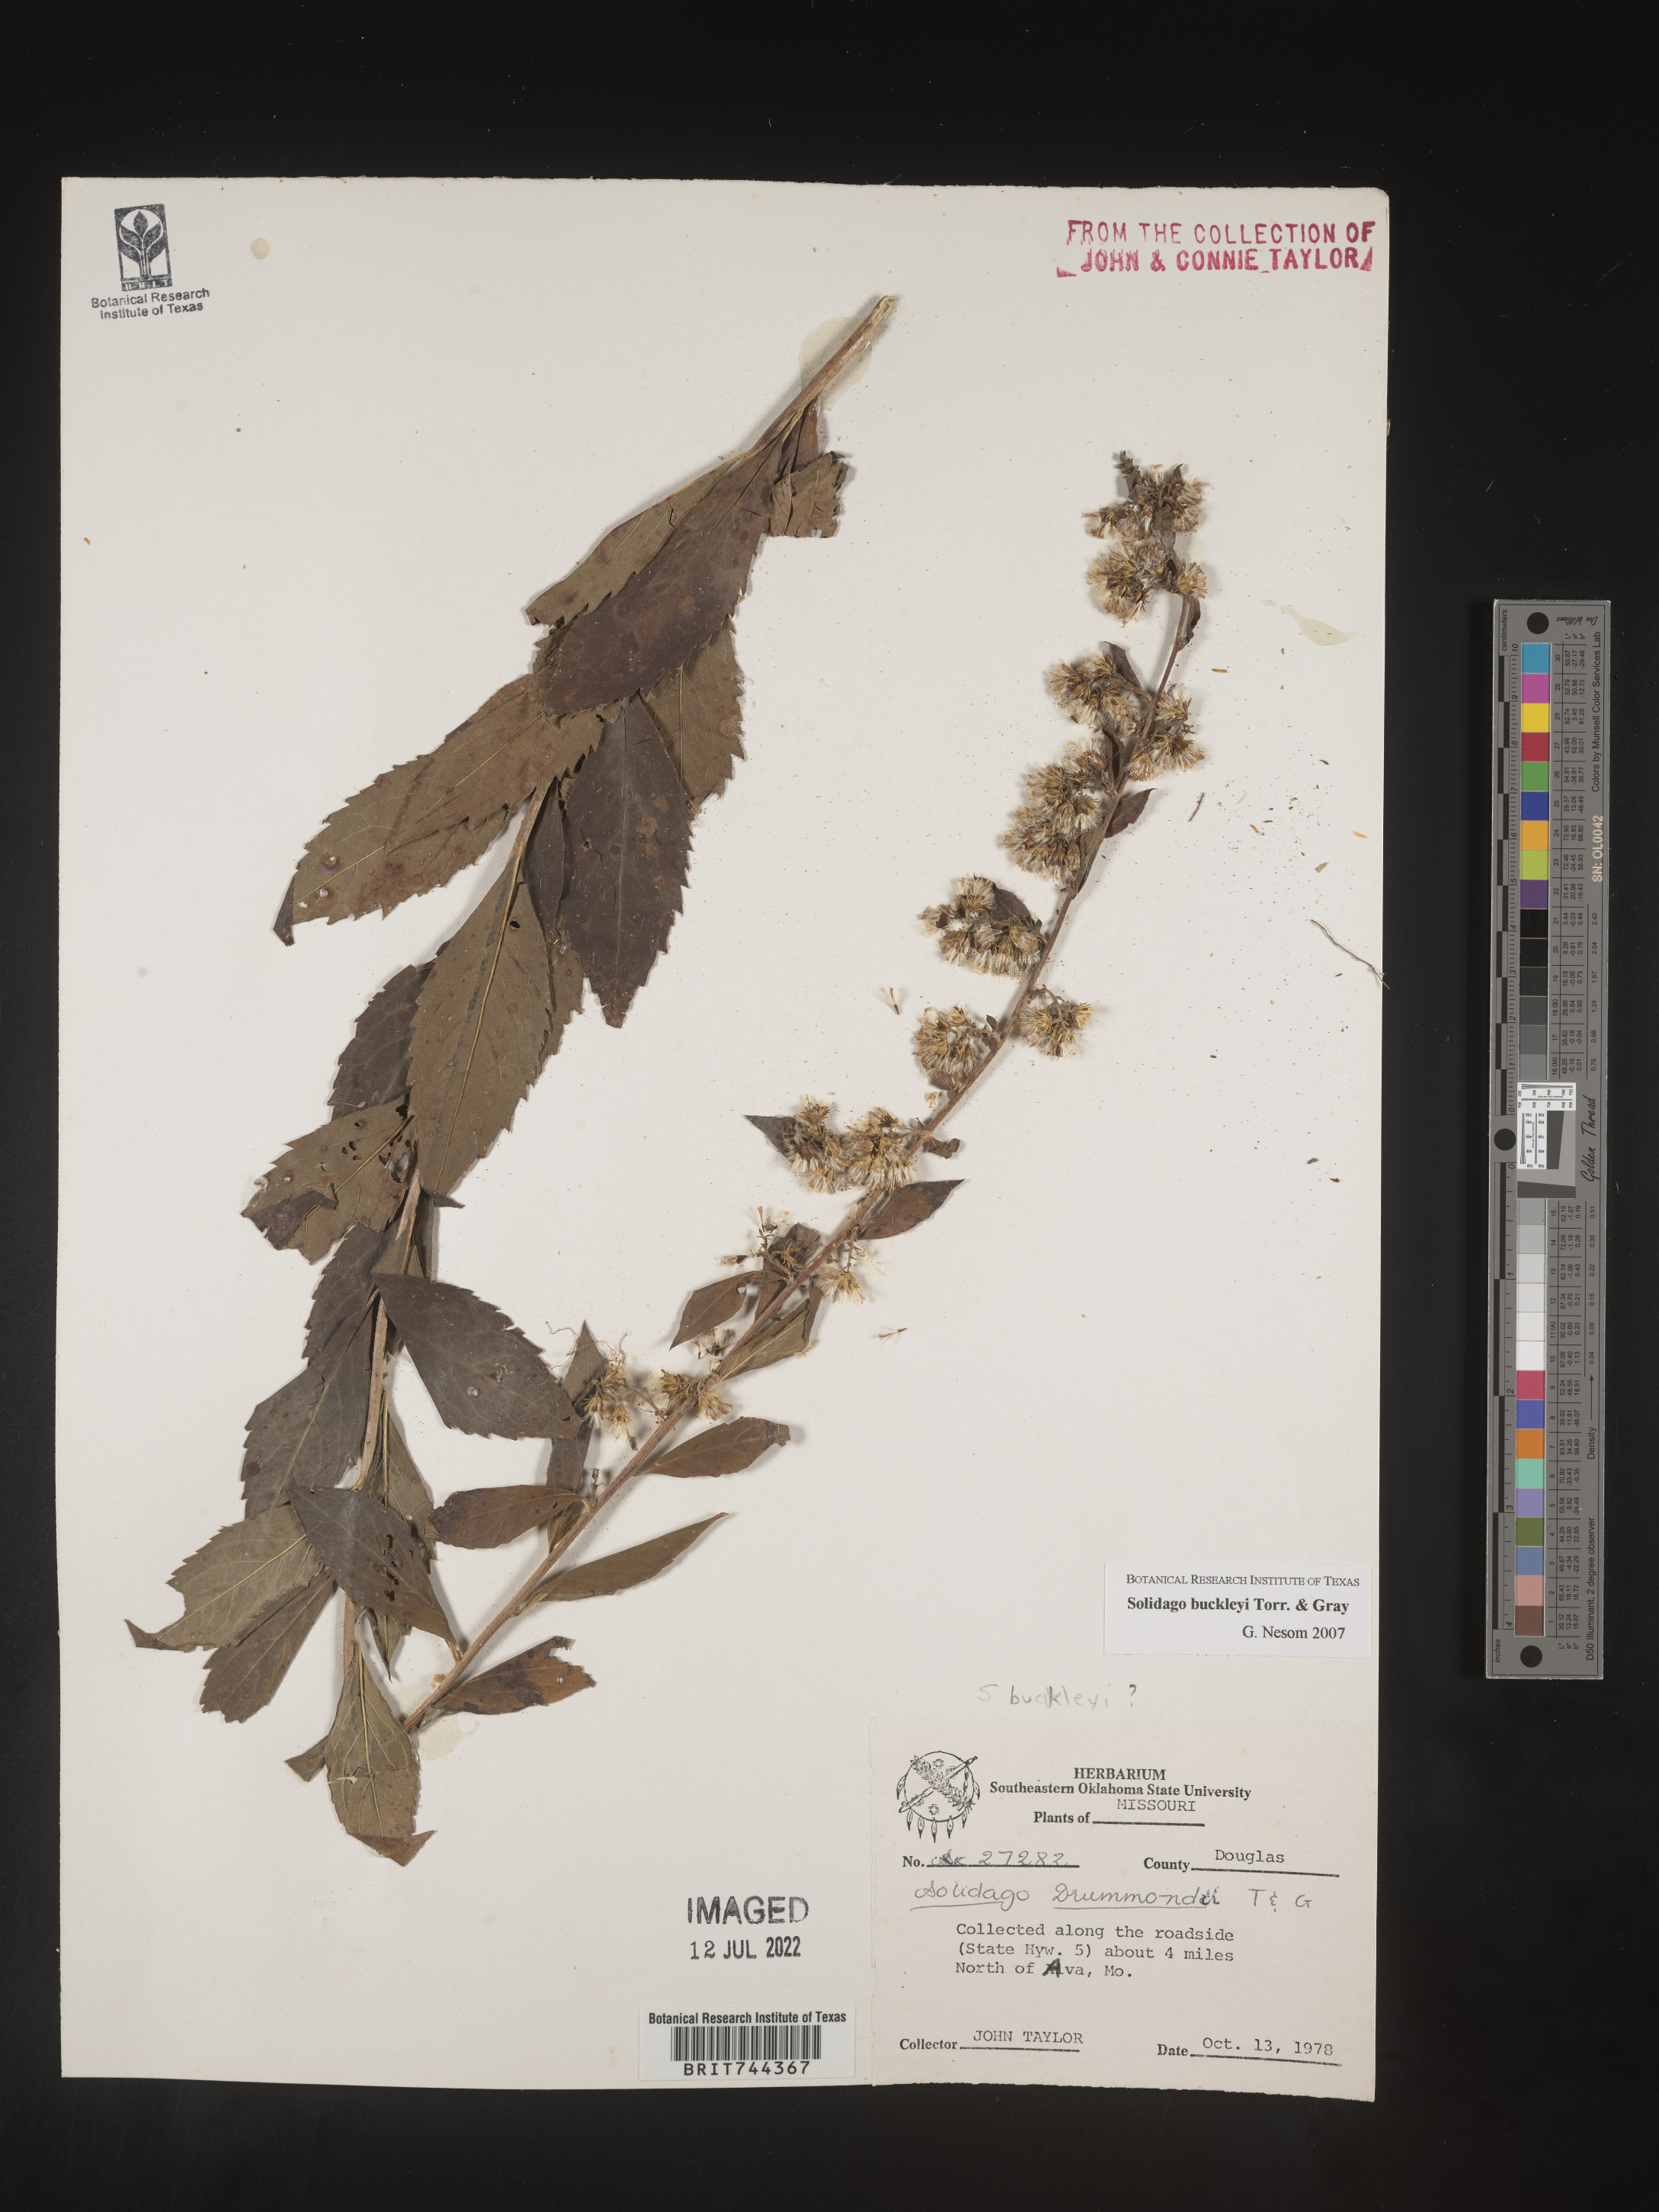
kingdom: Plantae
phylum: Tracheophyta
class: Magnoliopsida
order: Asterales
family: Asteraceae
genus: Solidago
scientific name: Solidago buckleyi
